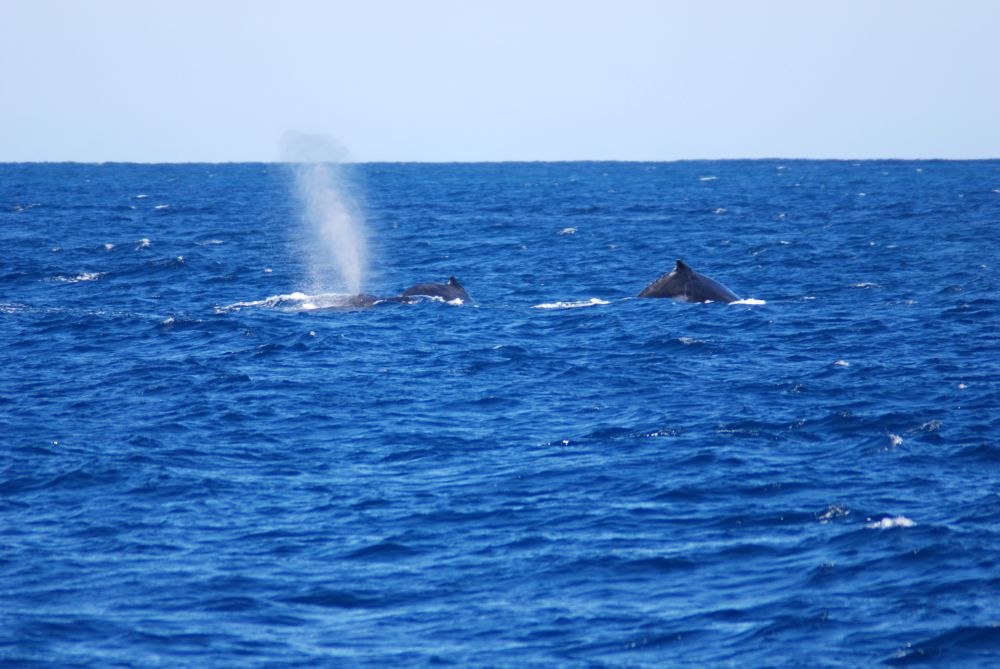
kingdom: Animalia
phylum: Chordata
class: Mammalia
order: Cetacea
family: Balaenopteridae
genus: Megaptera
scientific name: Megaptera novaeangliae
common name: Humpback whale
